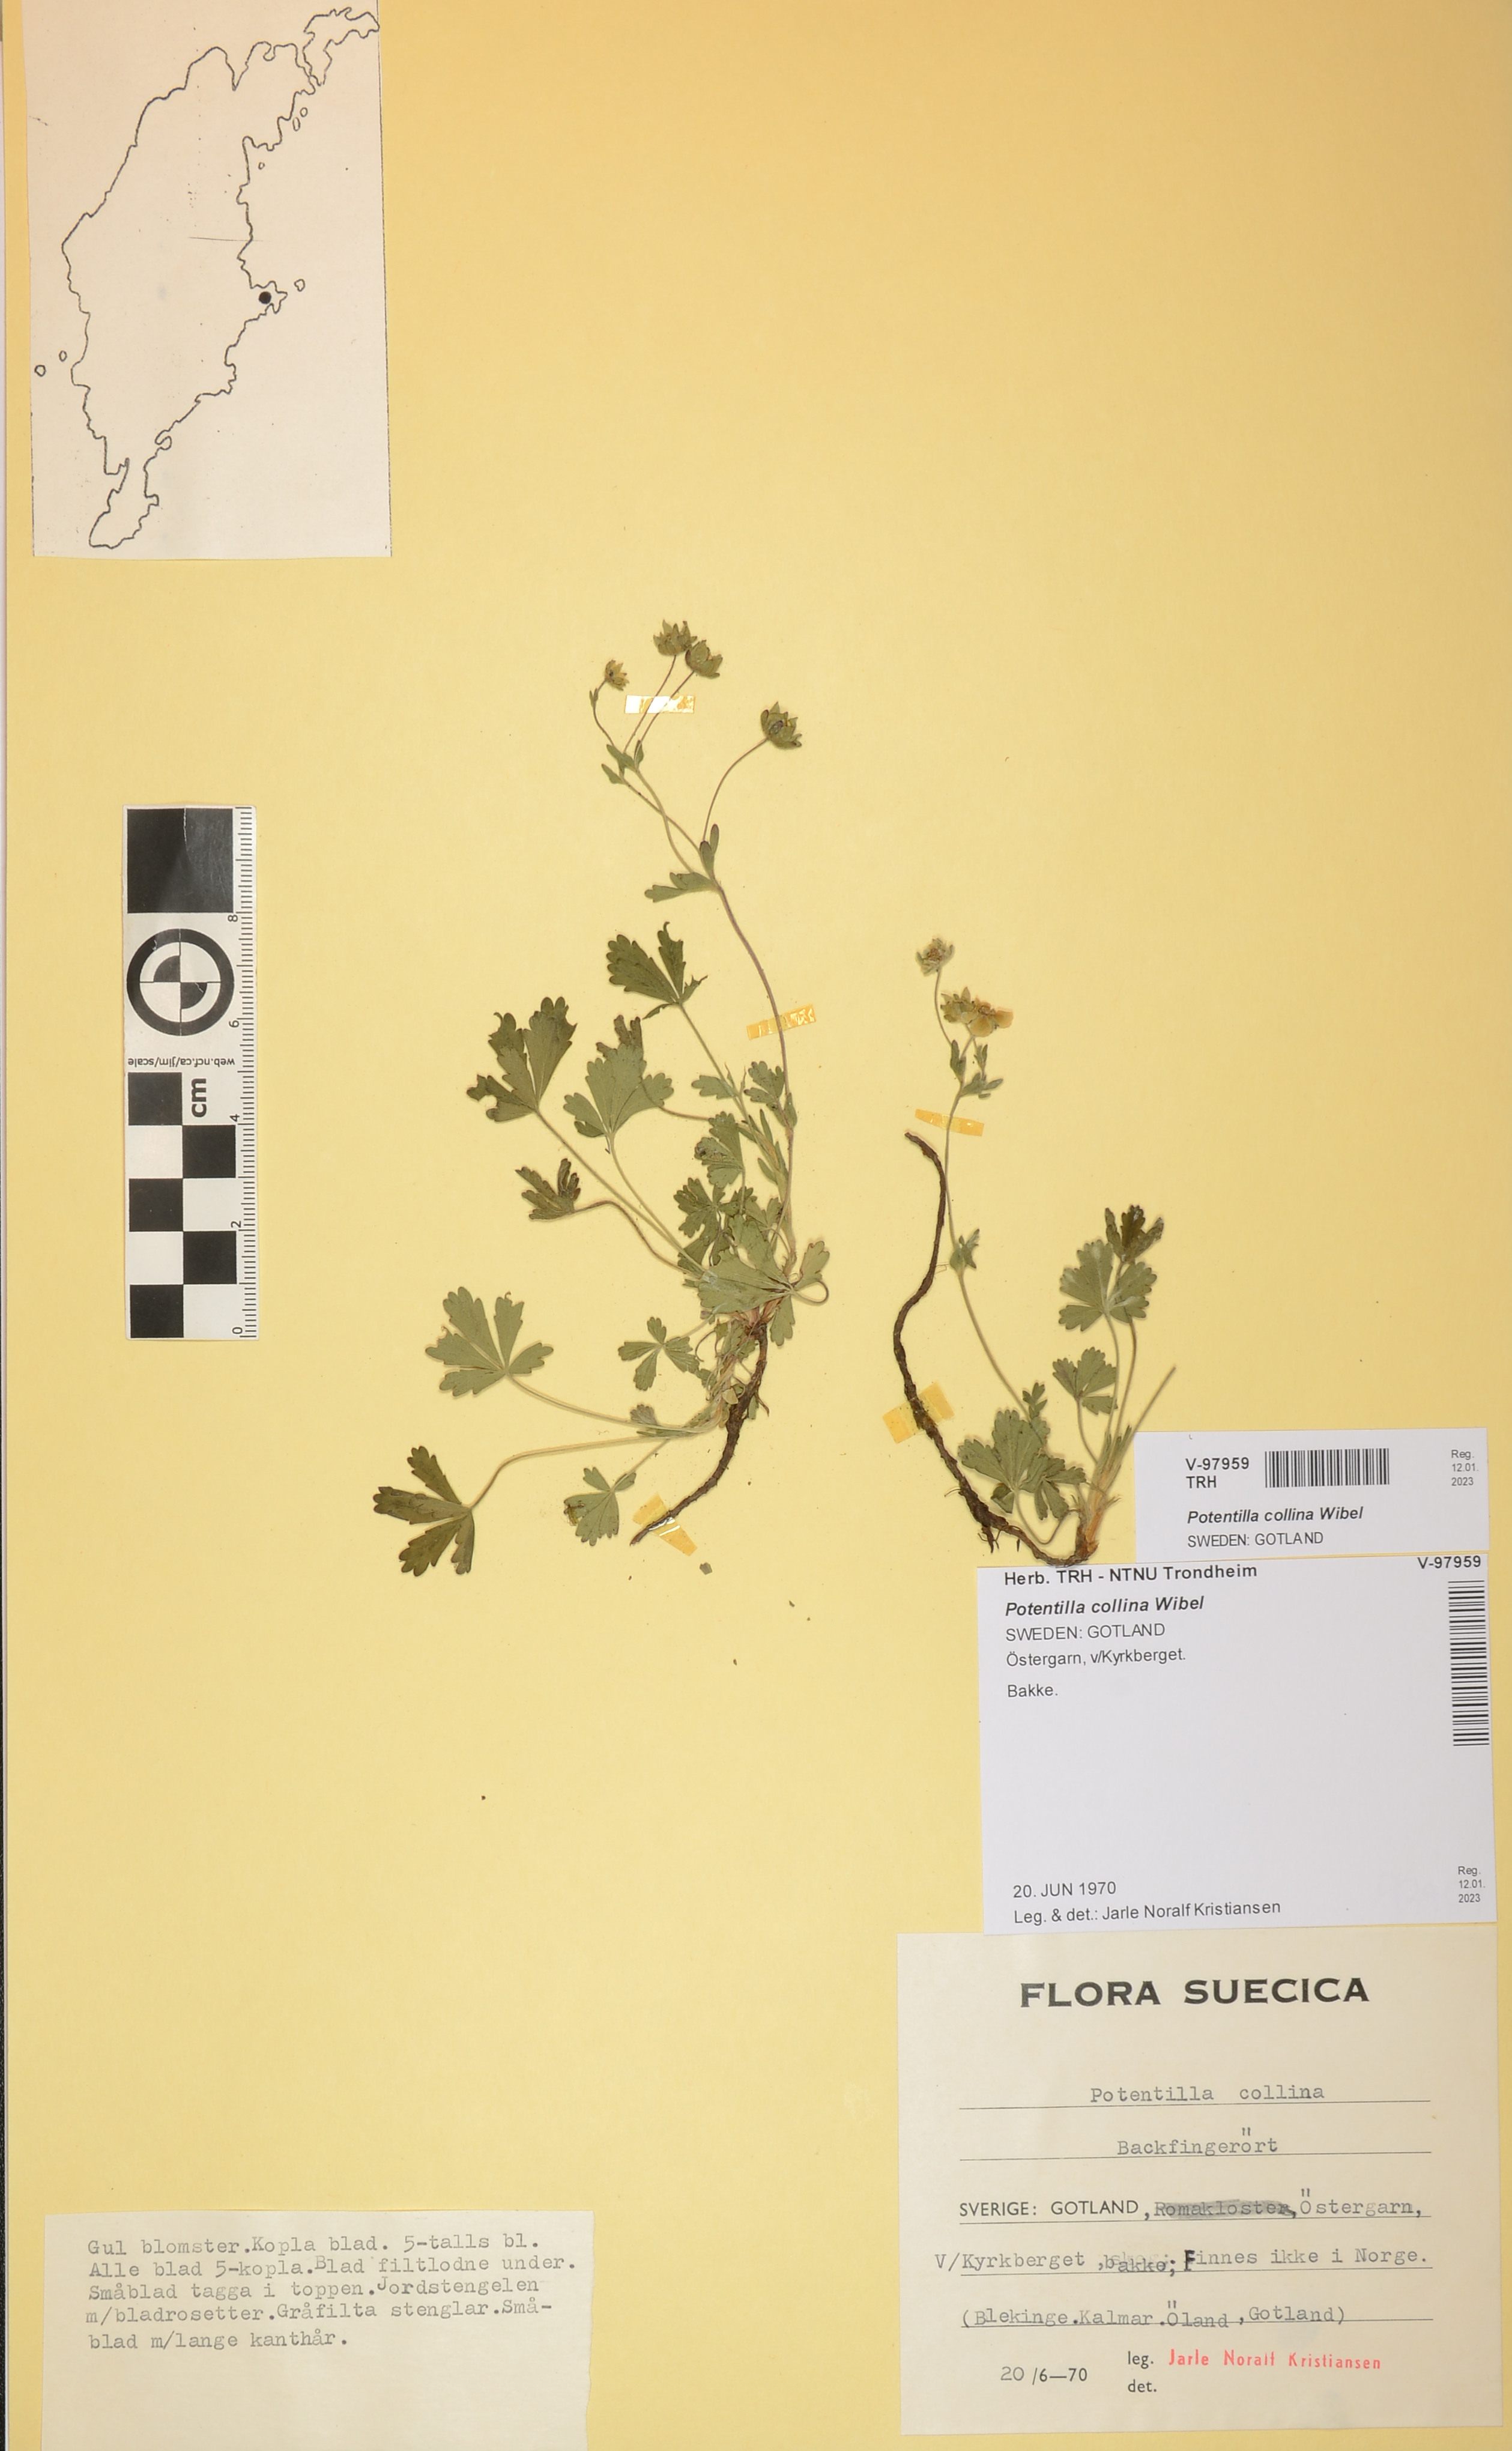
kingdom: Plantae
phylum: Tracheophyta
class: Magnoliopsida
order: Rosales
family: Rosaceae
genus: Potentilla
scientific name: Potentilla collina
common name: Palmleaf cinquefoil
